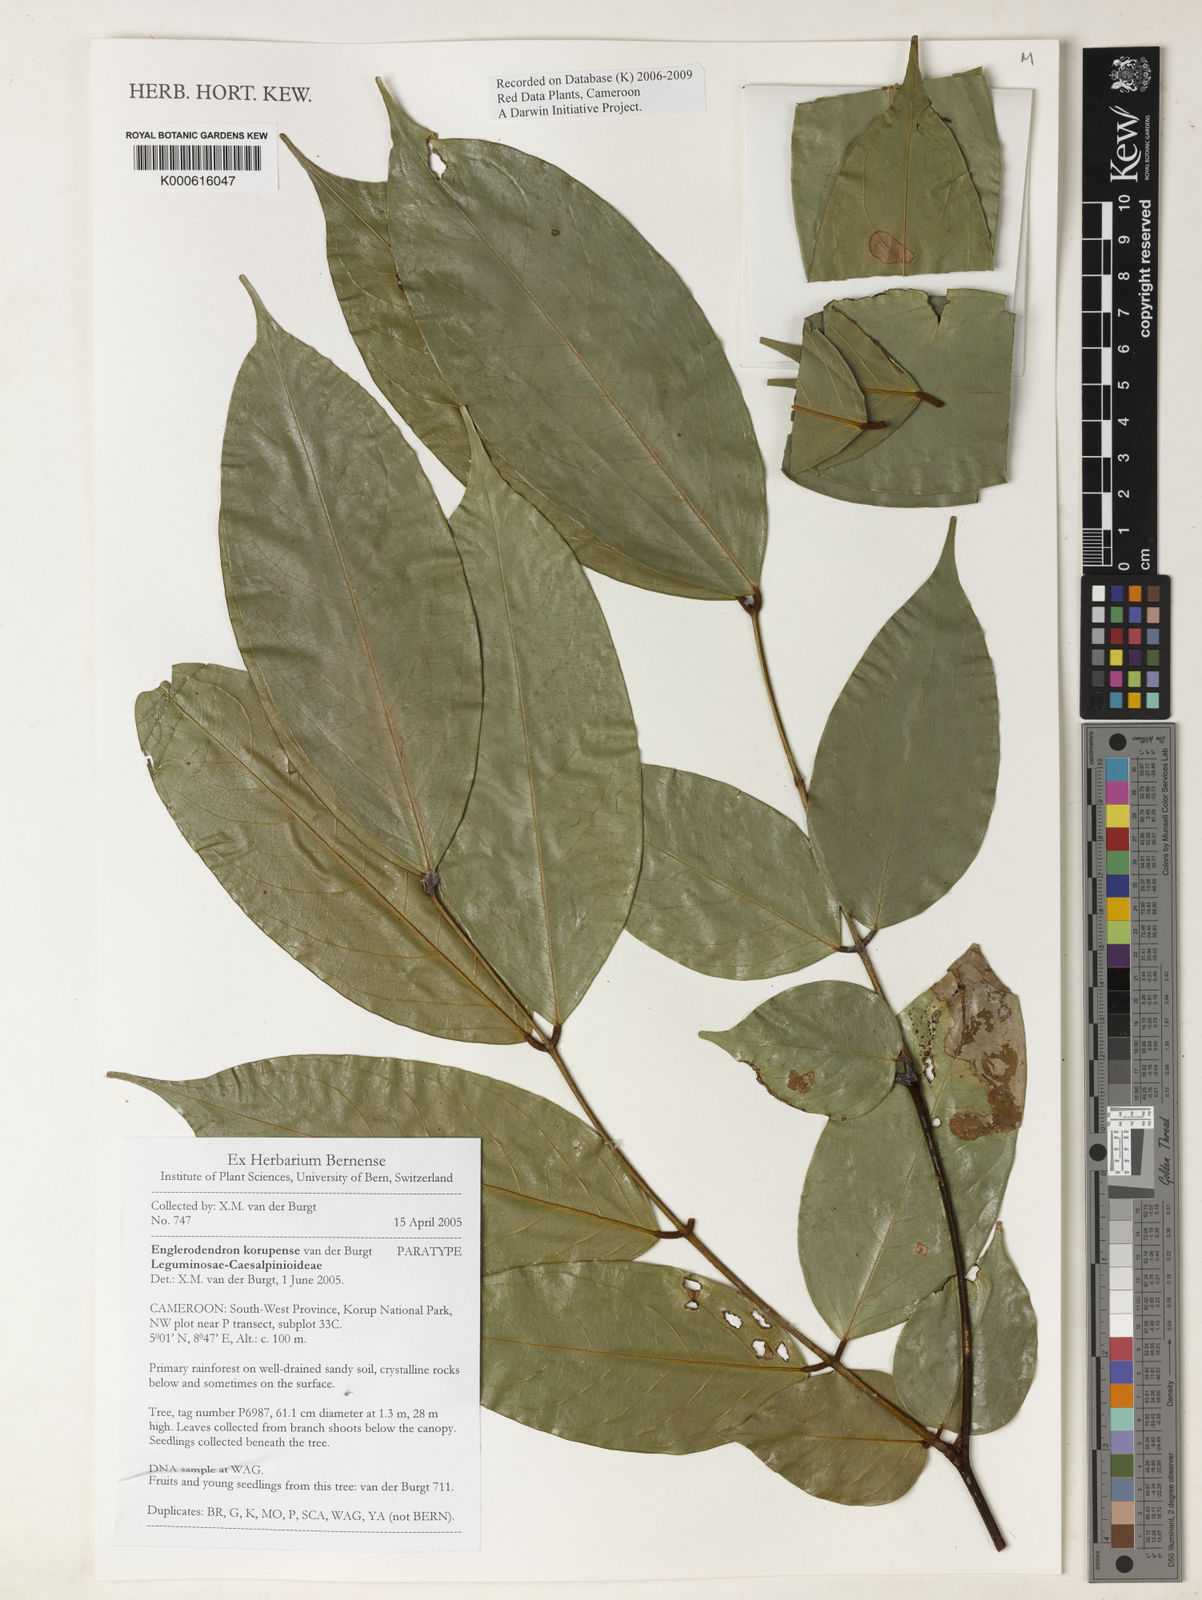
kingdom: Plantae
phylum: Tracheophyta
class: Magnoliopsida
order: Fabales
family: Fabaceae
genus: Englerodendron
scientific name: Englerodendron korupense
